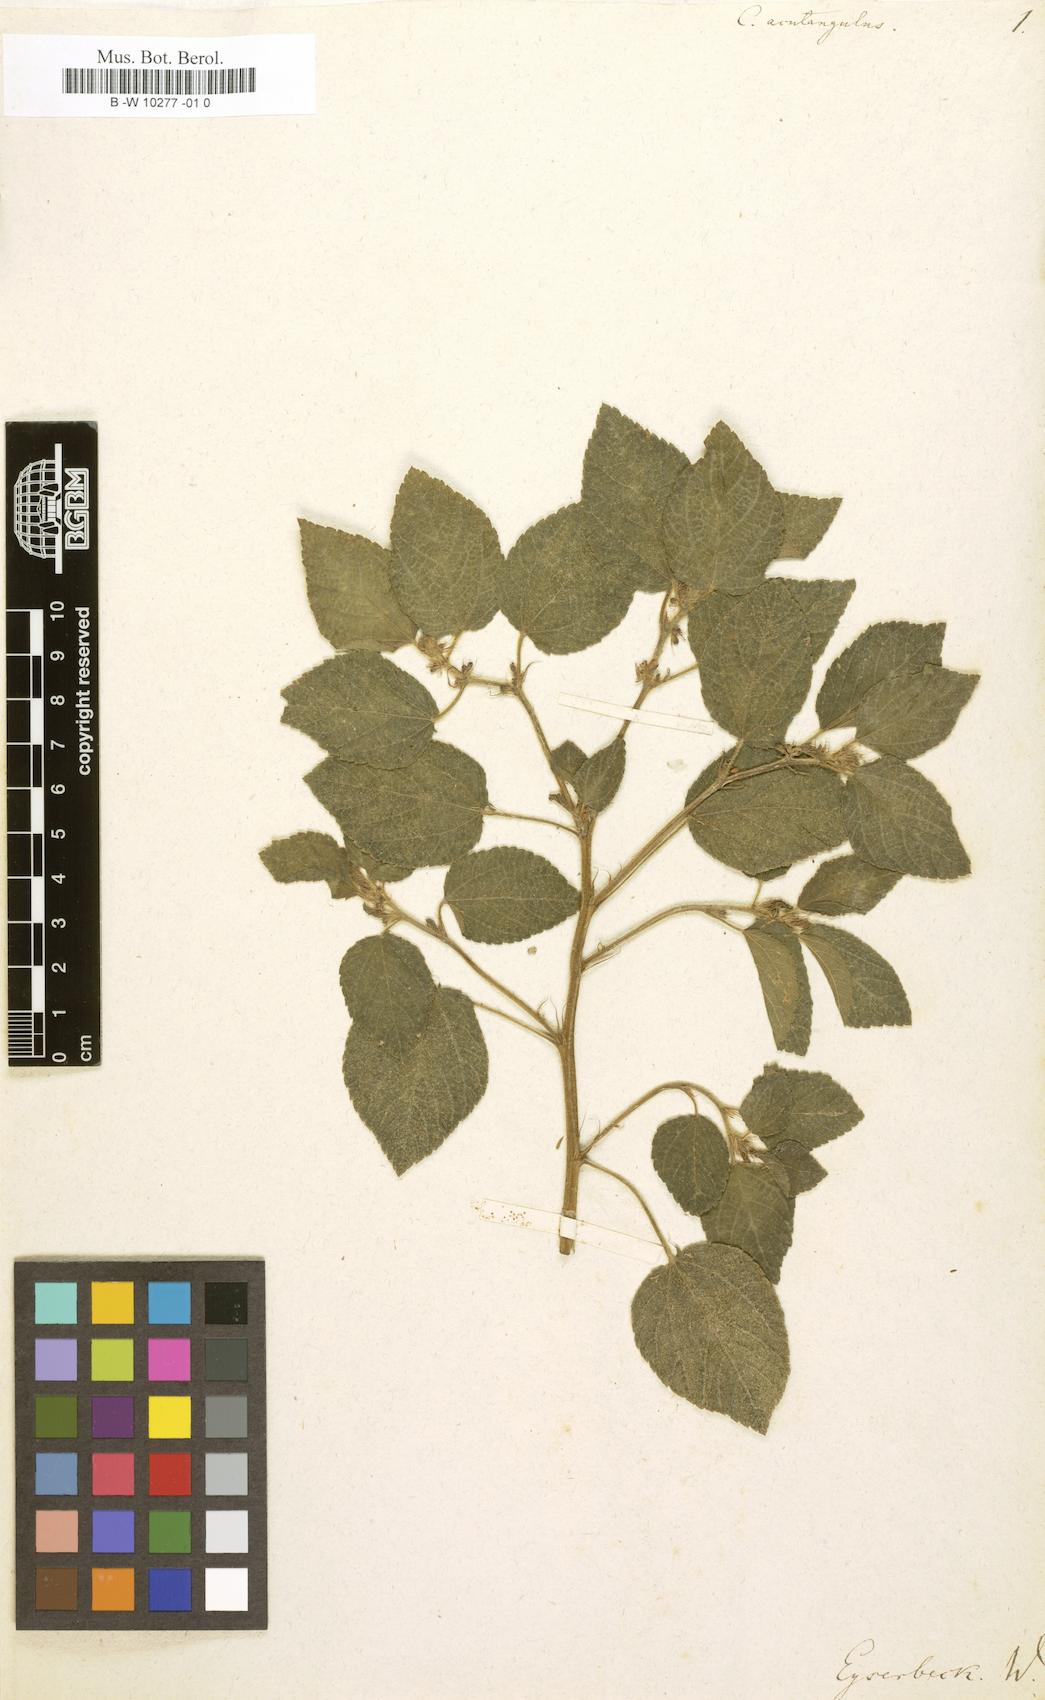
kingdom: Plantae
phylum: Tracheophyta
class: Magnoliopsida
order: Malvales
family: Malvaceae
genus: Corchorus
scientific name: Corchorus aestuans
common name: Jute
